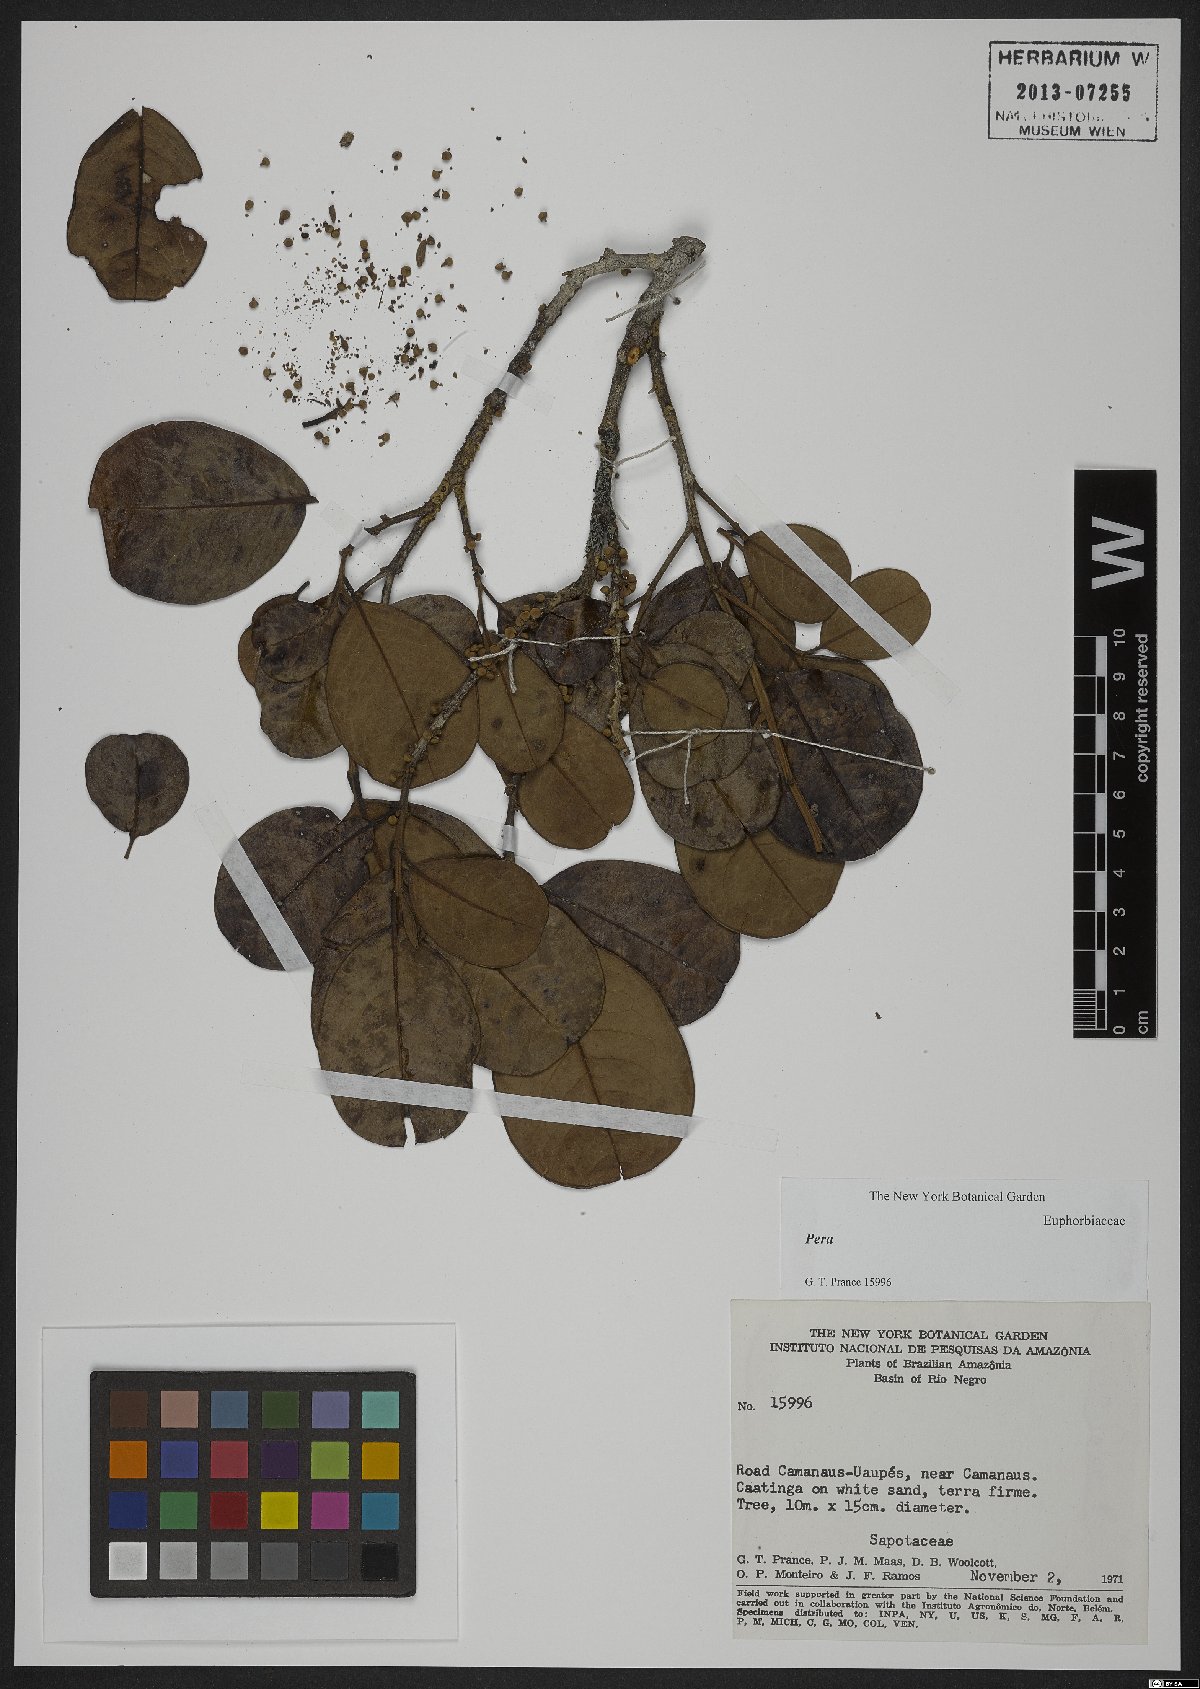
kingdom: Plantae
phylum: Tracheophyta
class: Magnoliopsida
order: Malpighiales
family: Peraceae
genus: Pera
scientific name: Pera
